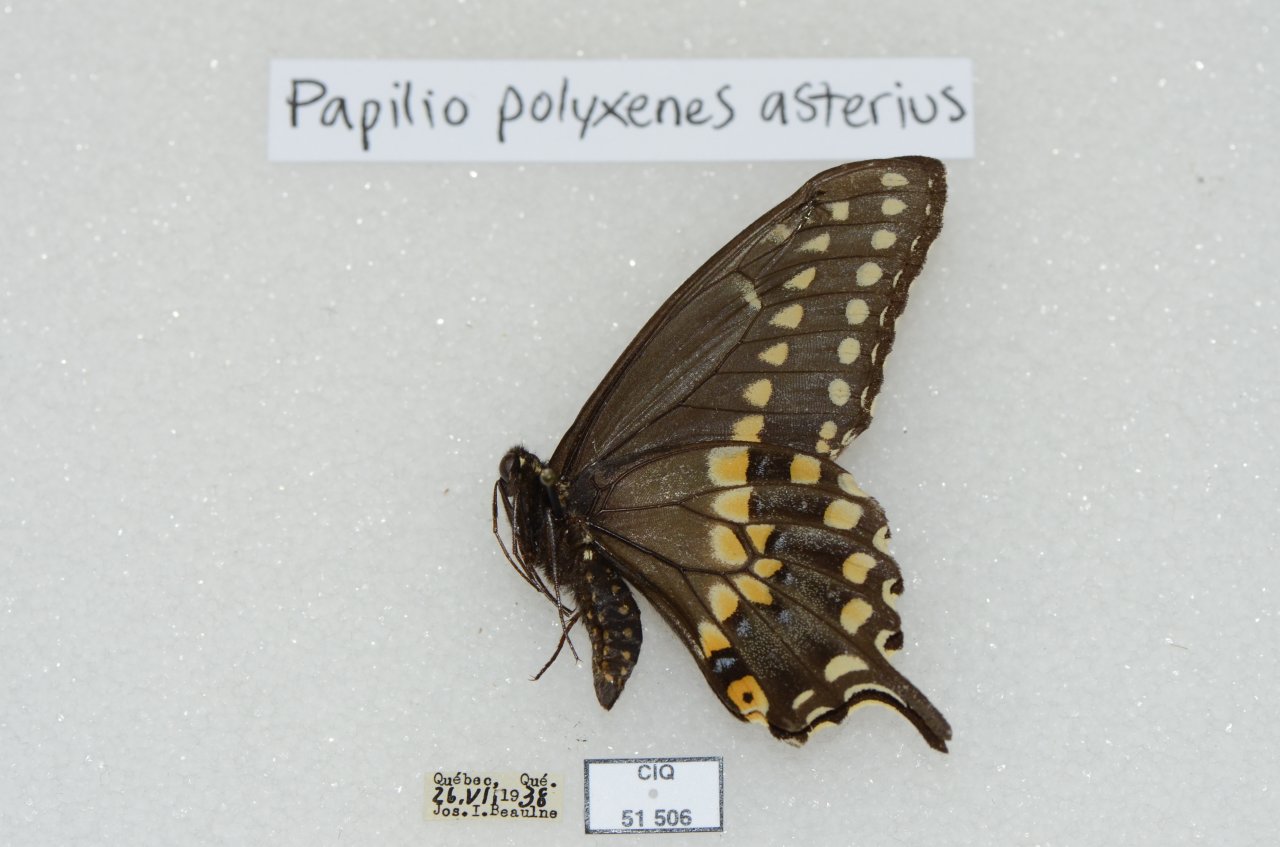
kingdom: Animalia
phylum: Arthropoda
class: Insecta
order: Lepidoptera
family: Papilionidae
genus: Papilio
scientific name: Papilio polyxenes
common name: Black Swallowtail
